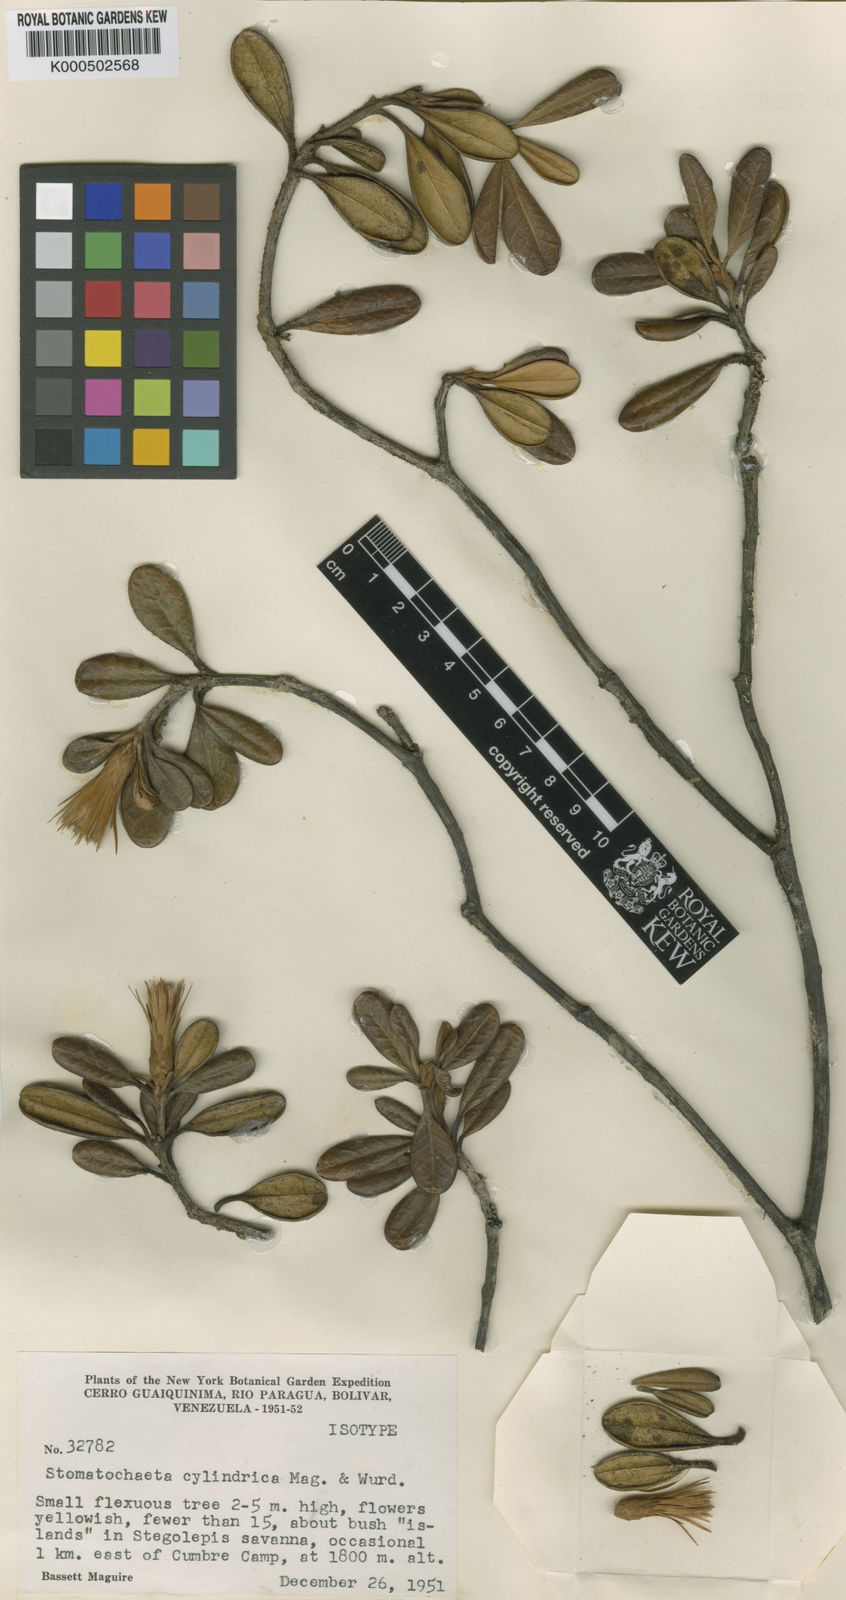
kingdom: Plantae
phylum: Tracheophyta
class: Magnoliopsida
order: Asterales
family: Asteraceae
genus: Stomatochaeta
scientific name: Stomatochaeta cylindrica
